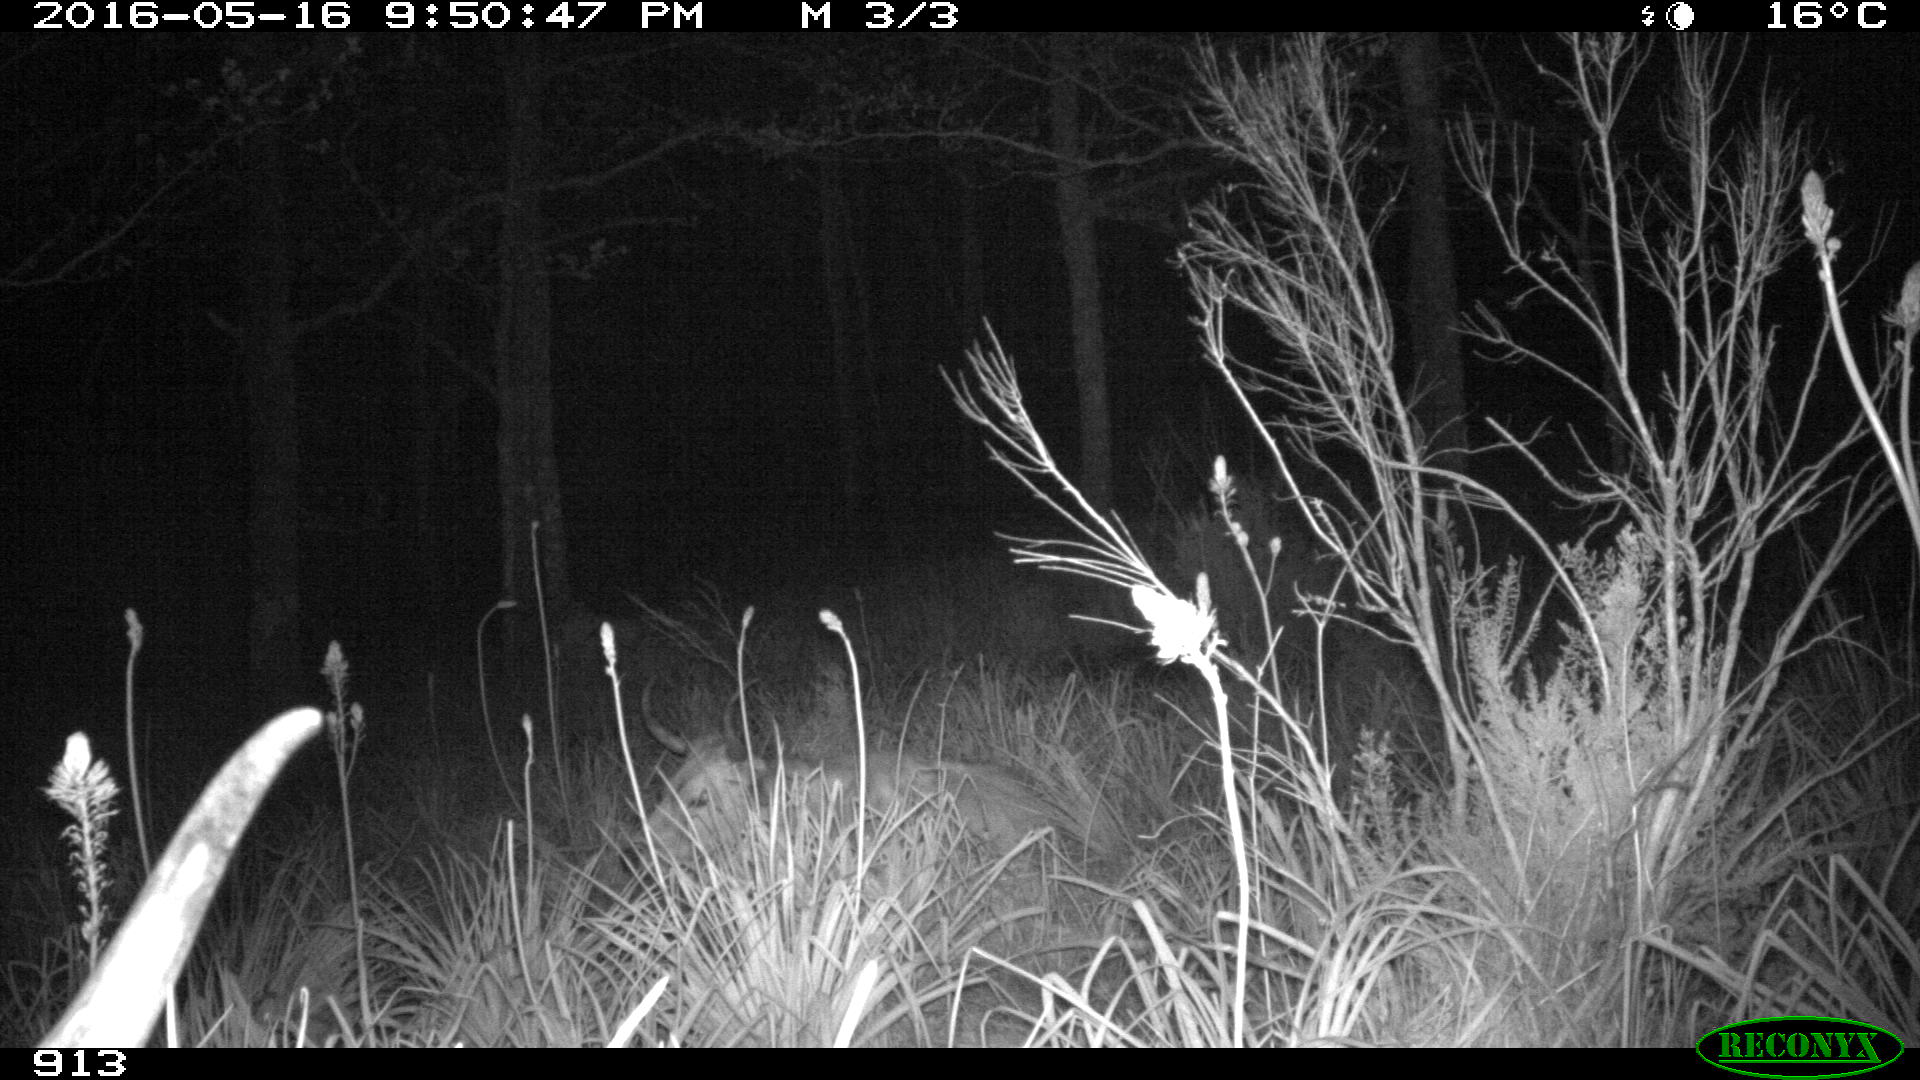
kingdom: Animalia
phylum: Chordata
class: Mammalia
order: Artiodactyla
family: Bovidae
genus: Bos
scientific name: Bos taurus
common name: Domesticated cattle
